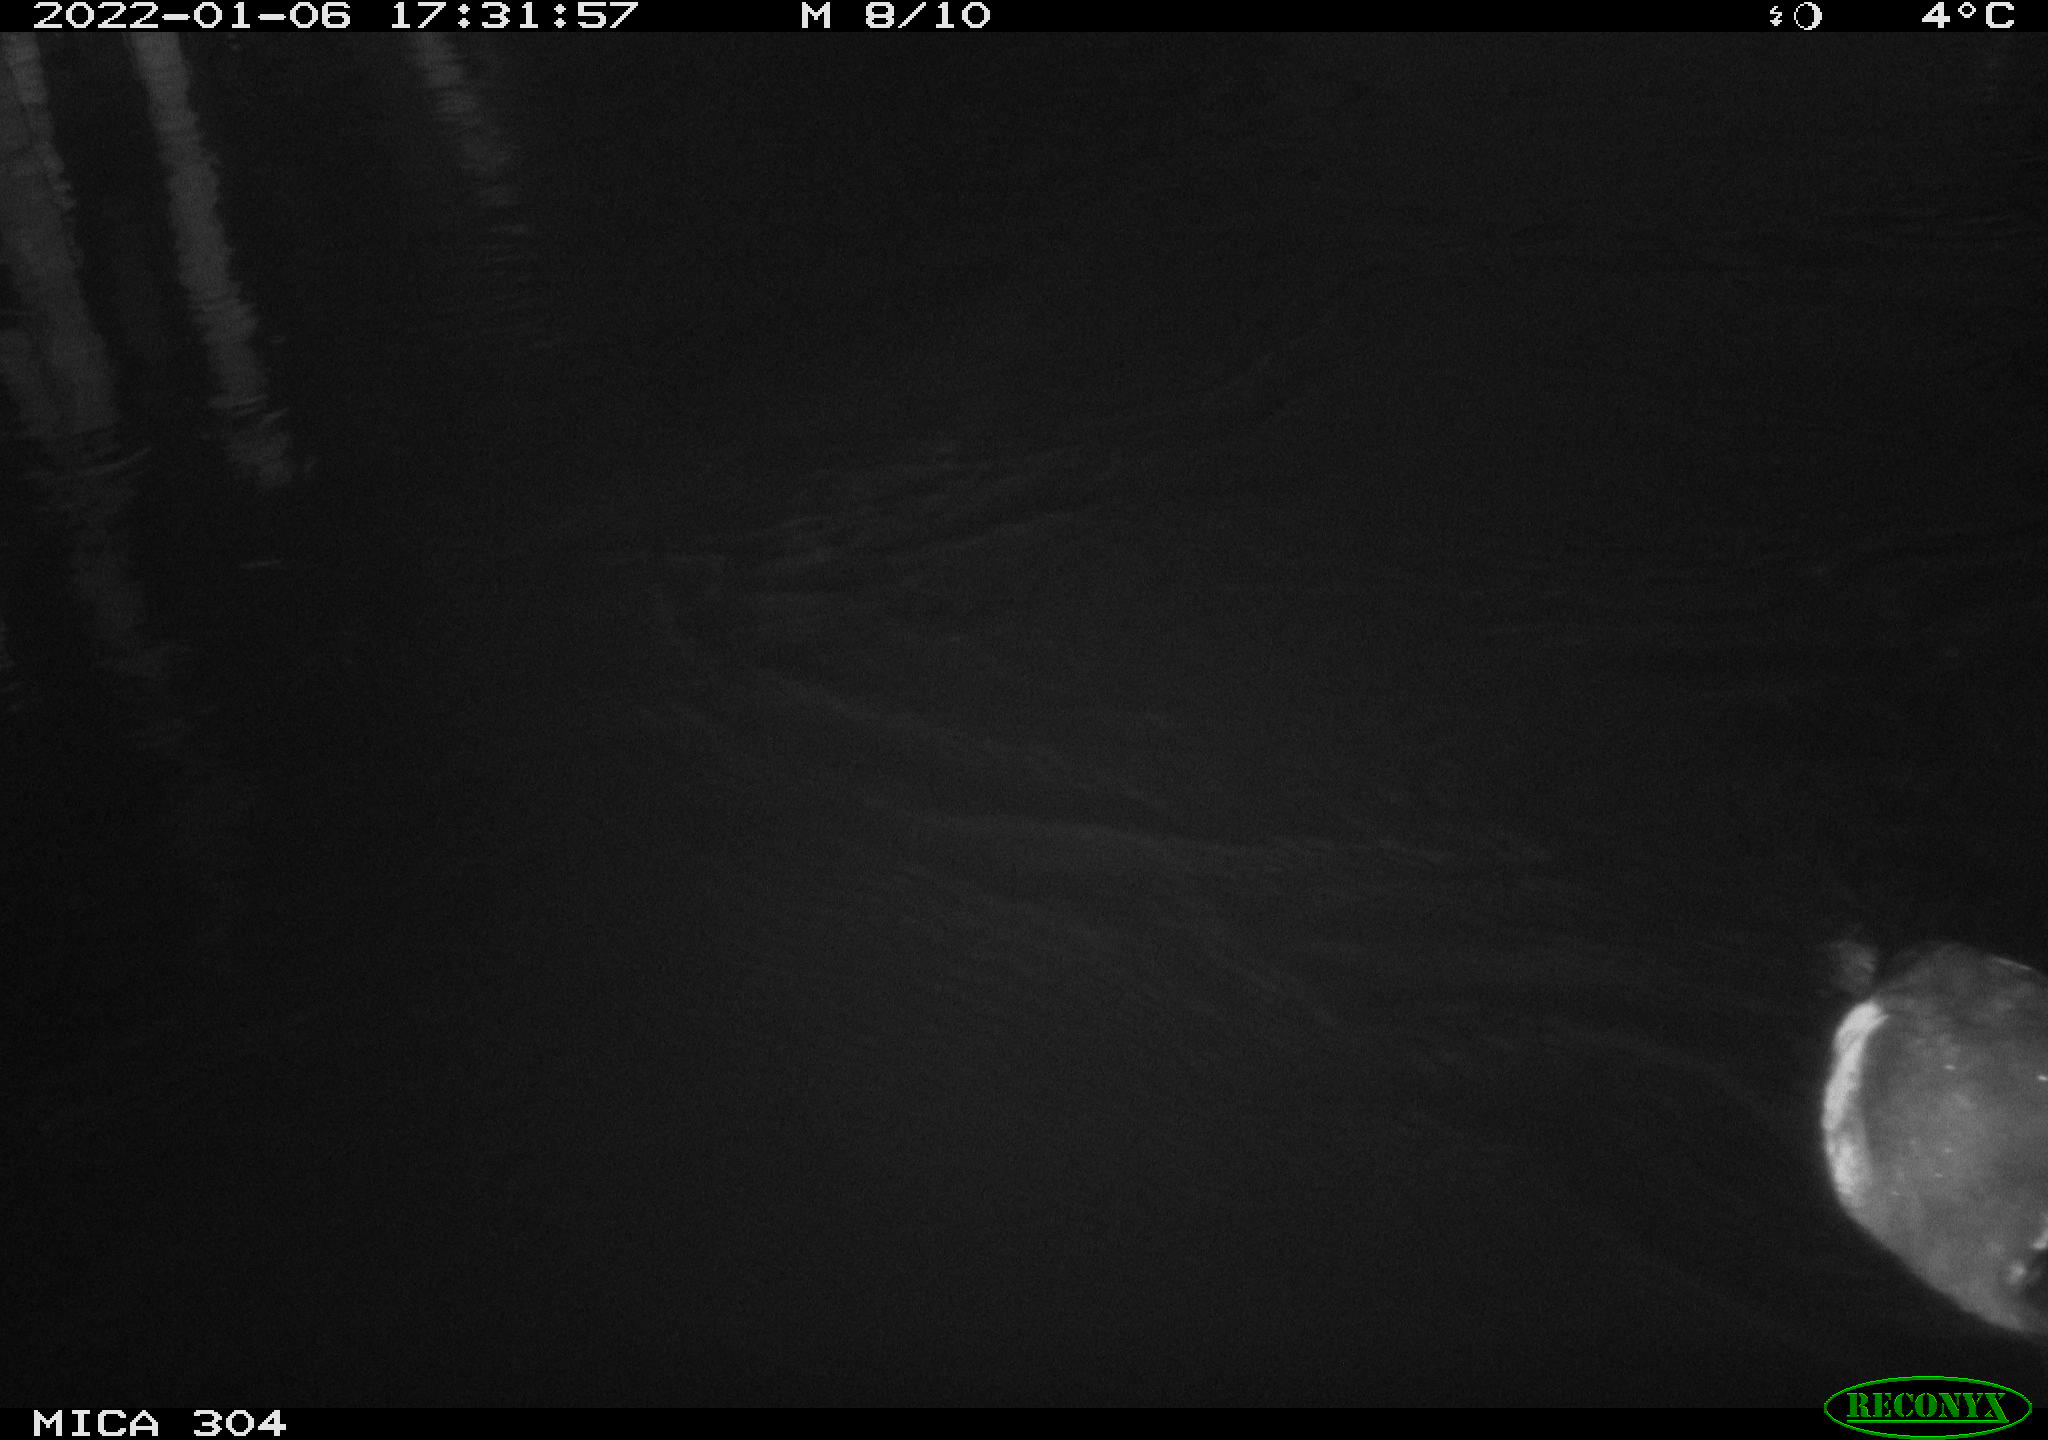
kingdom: Animalia
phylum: Chordata
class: Aves
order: Gruiformes
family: Rallidae
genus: Fulica
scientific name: Fulica atra
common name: Eurasian coot
